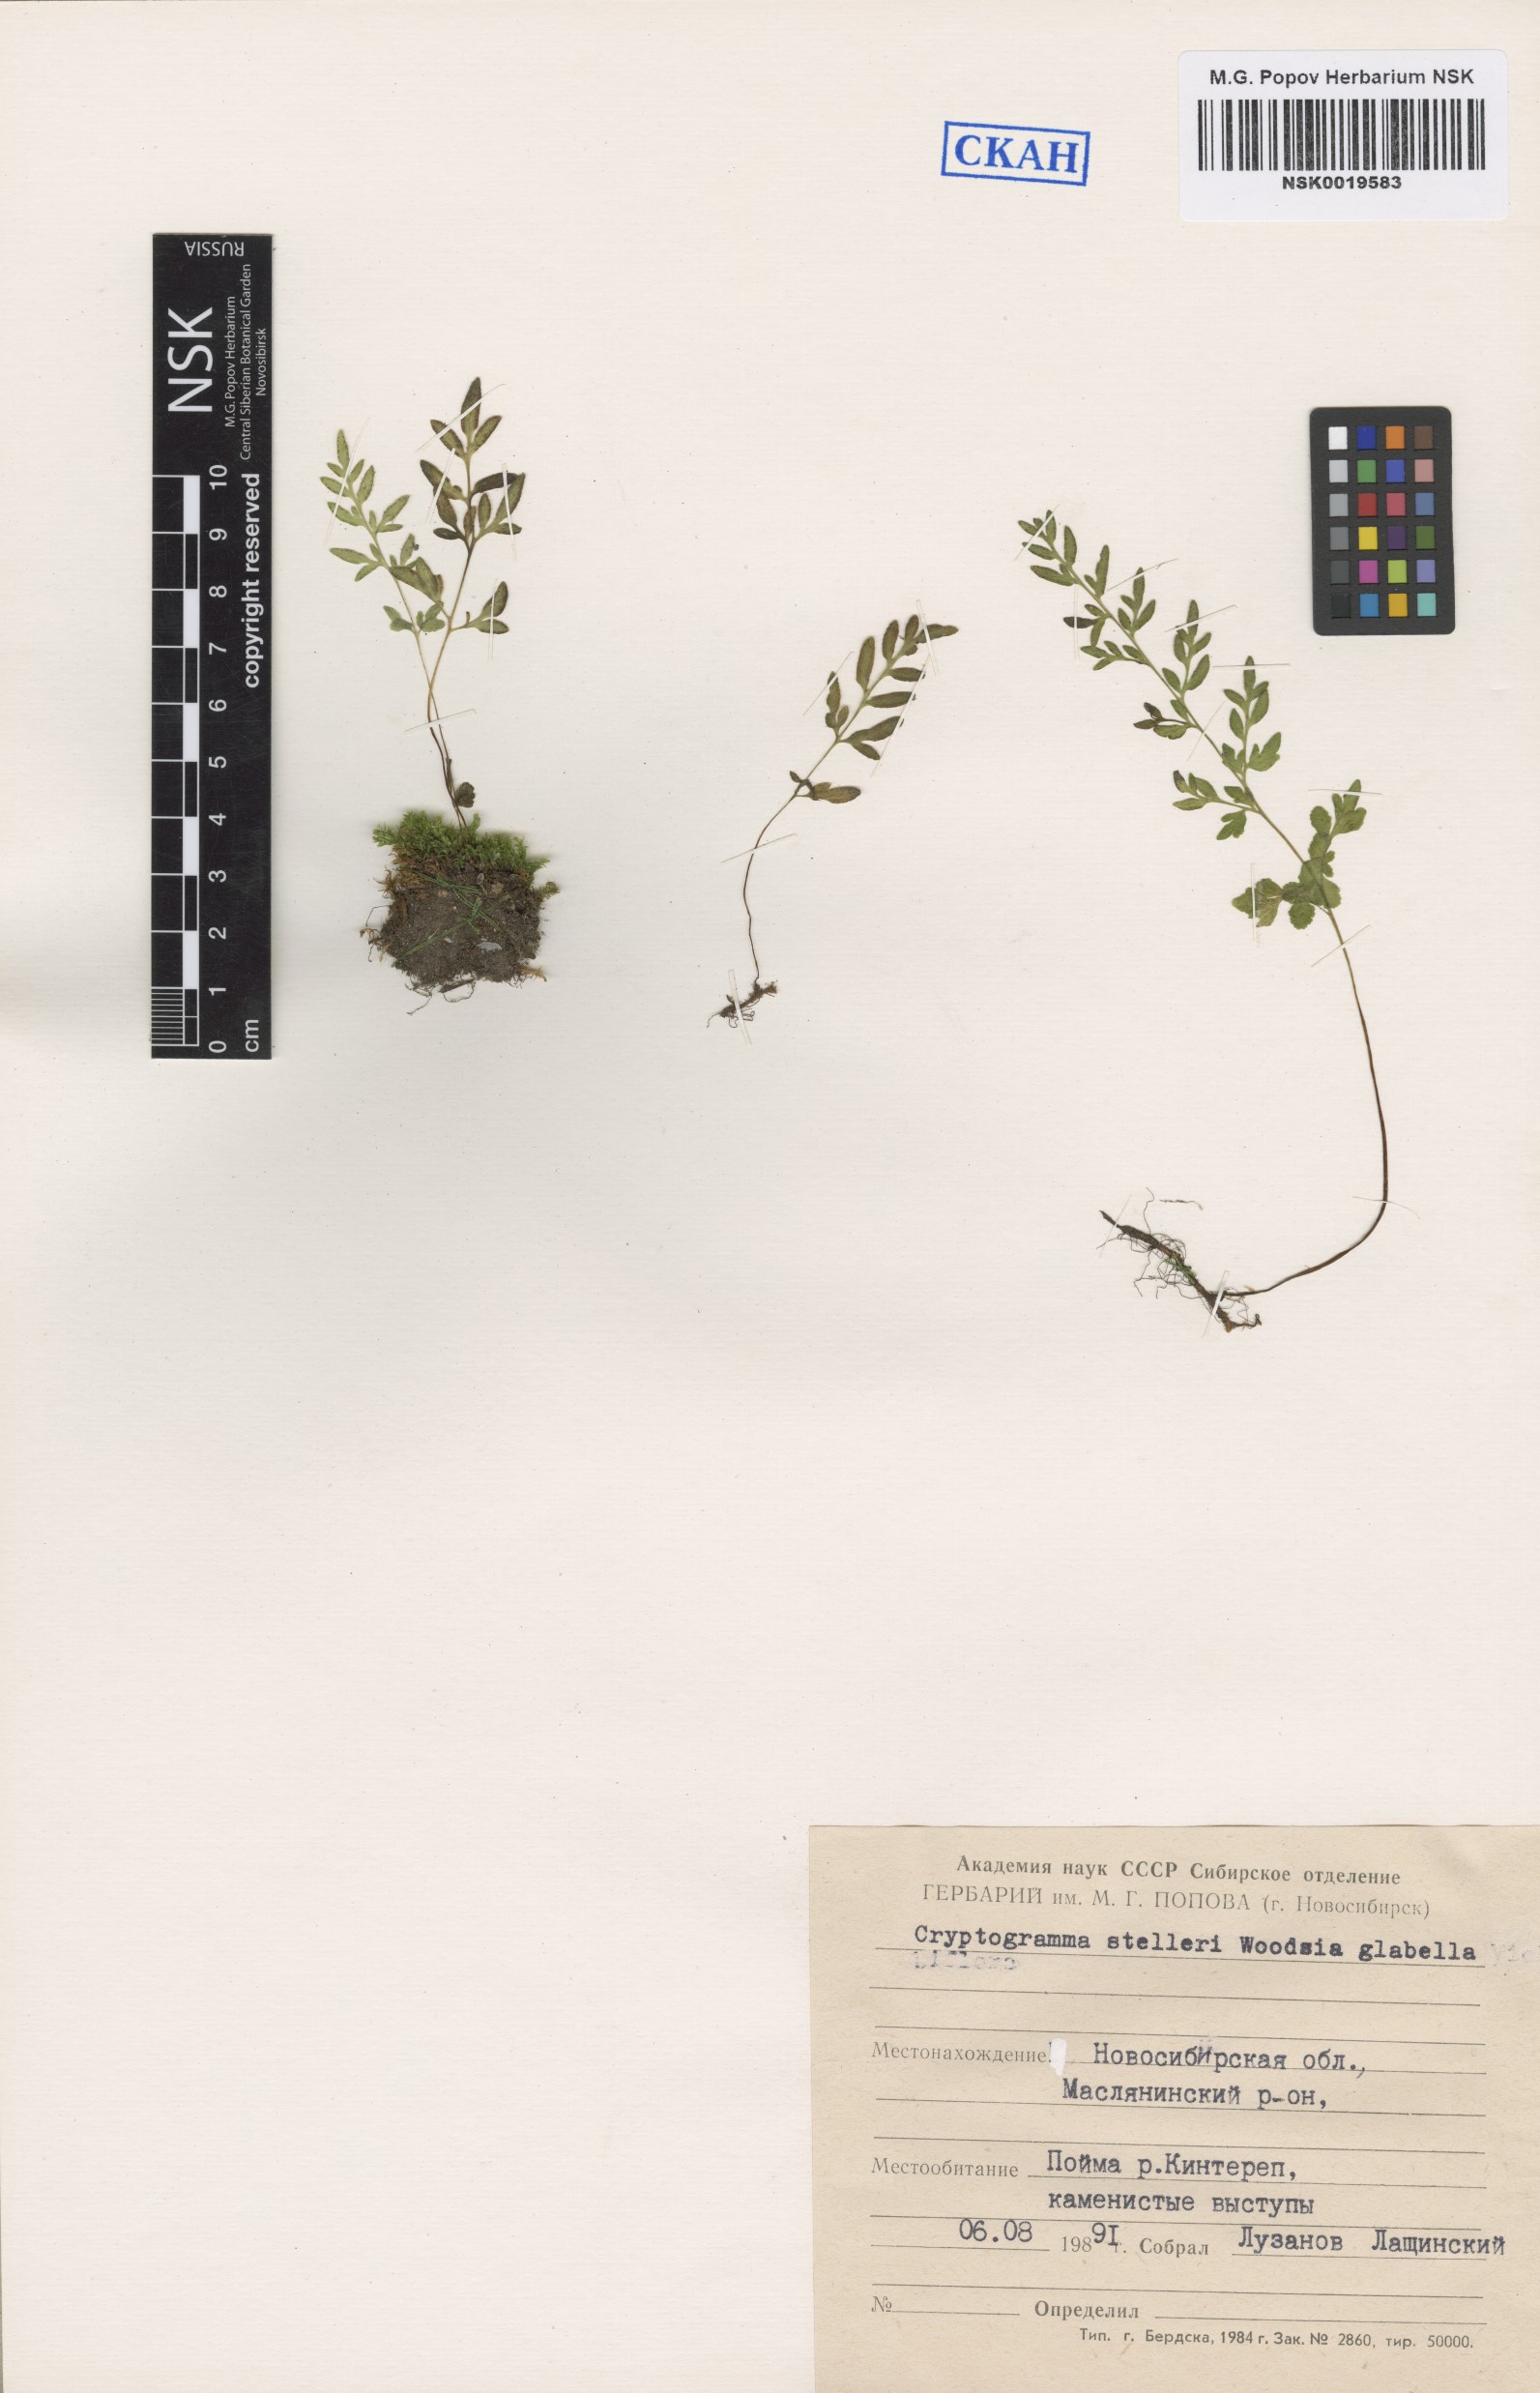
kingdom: Plantae
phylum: Tracheophyta
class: Polypodiopsida
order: Polypodiales
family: Pteridaceae
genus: Cryptogramma
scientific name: Cryptogramma stelleri
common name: Cliff-brake
